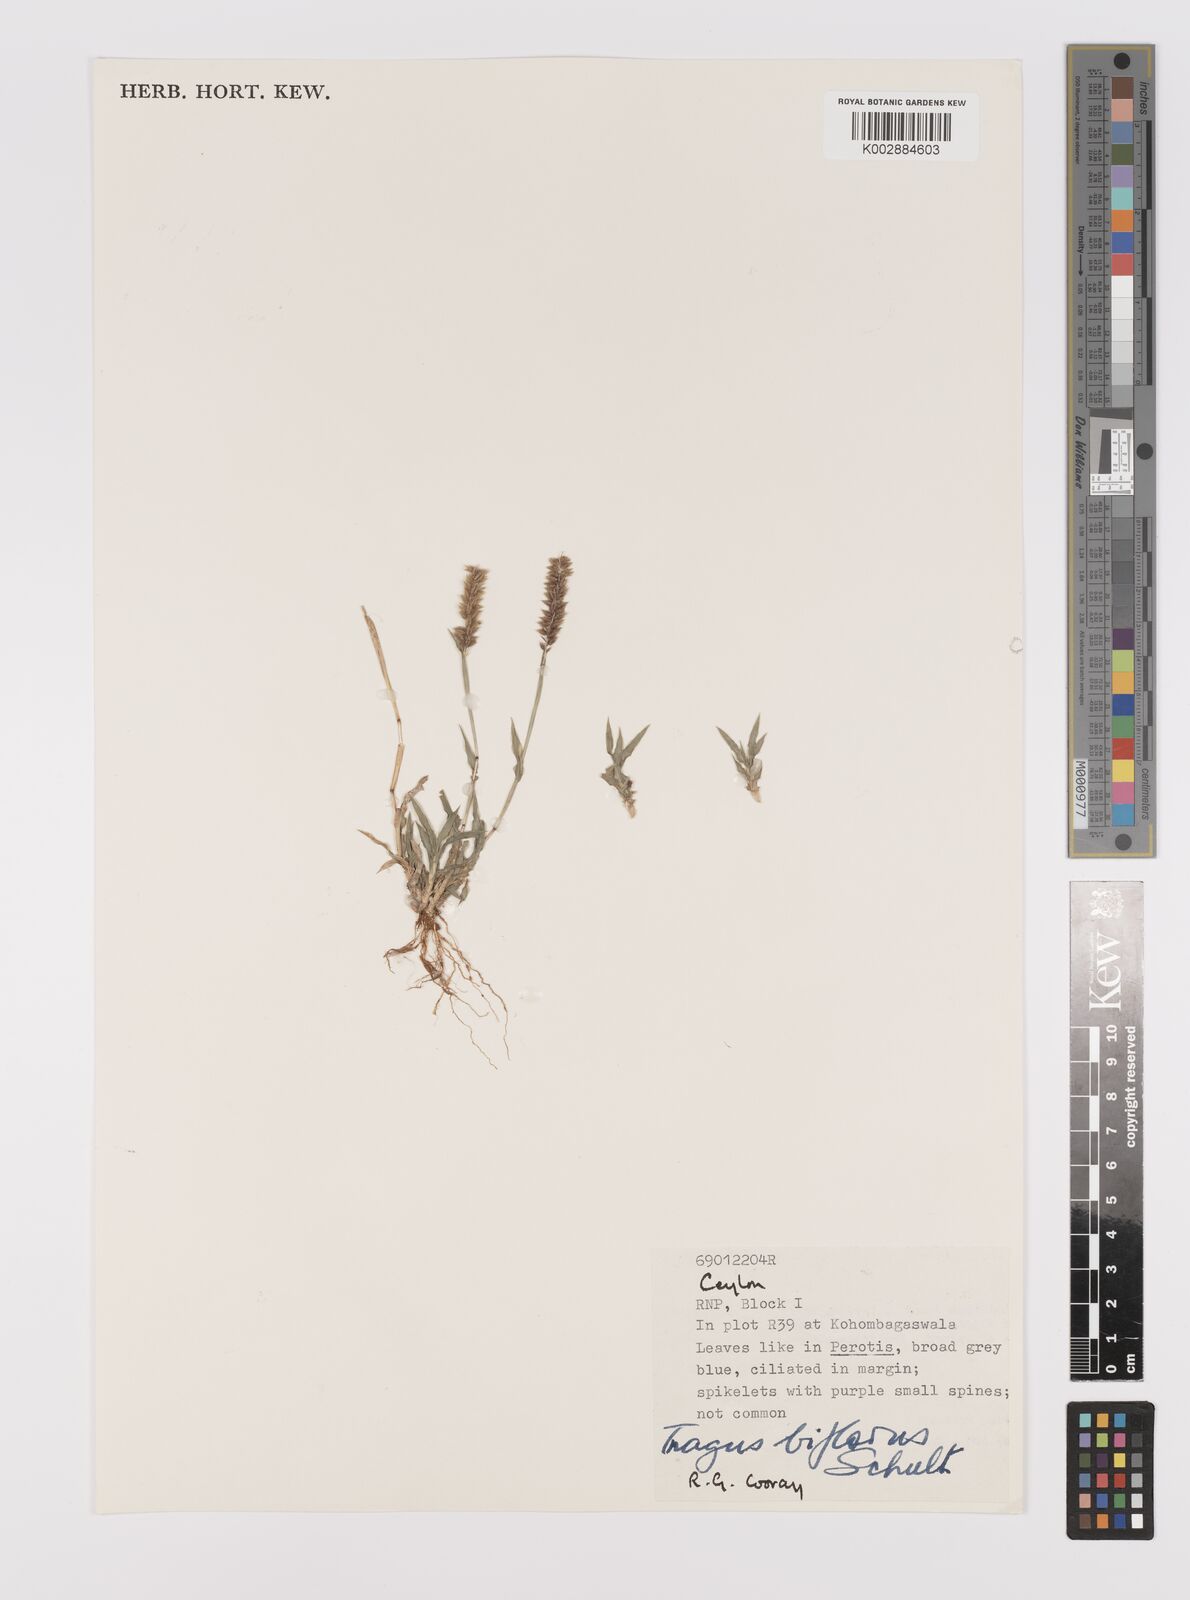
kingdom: Plantae
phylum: Tracheophyta
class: Liliopsida
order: Poales
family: Poaceae
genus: Tragus
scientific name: Tragus mongolorum
